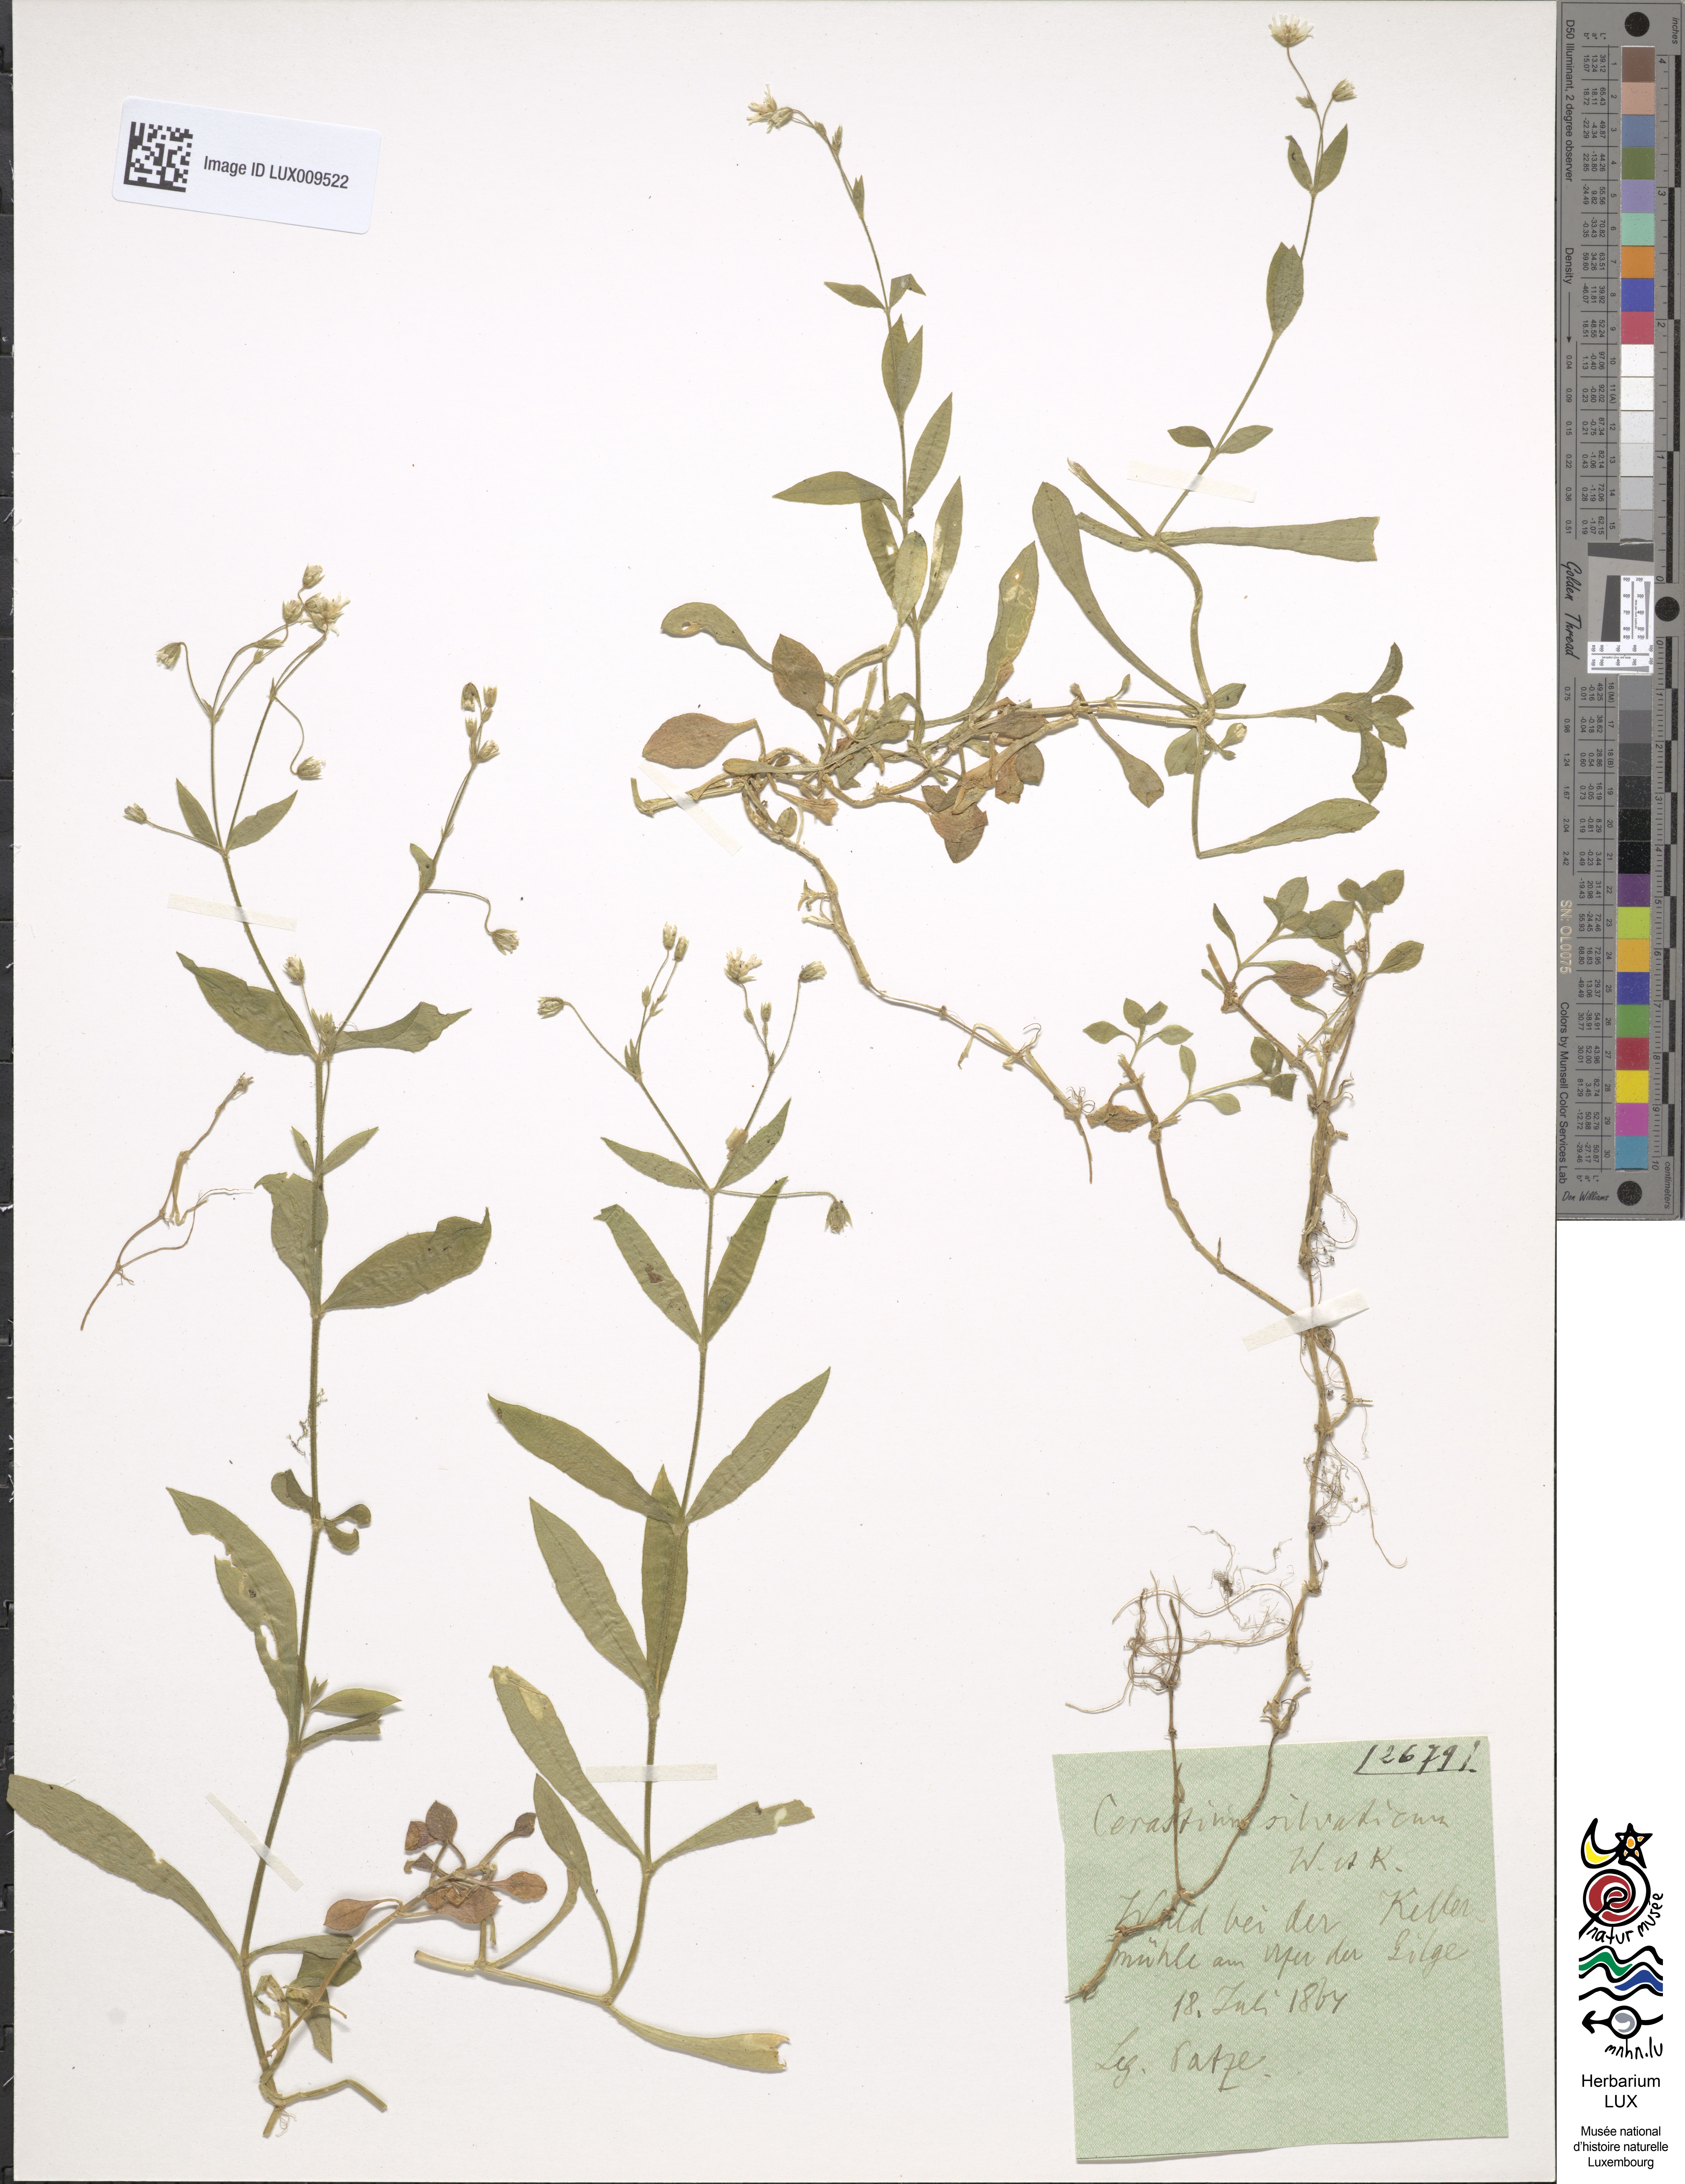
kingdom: Plantae
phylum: Tracheophyta
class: Magnoliopsida
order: Caryophyllales
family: Caryophyllaceae
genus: Cerastium
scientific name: Cerastium sylvaticum
